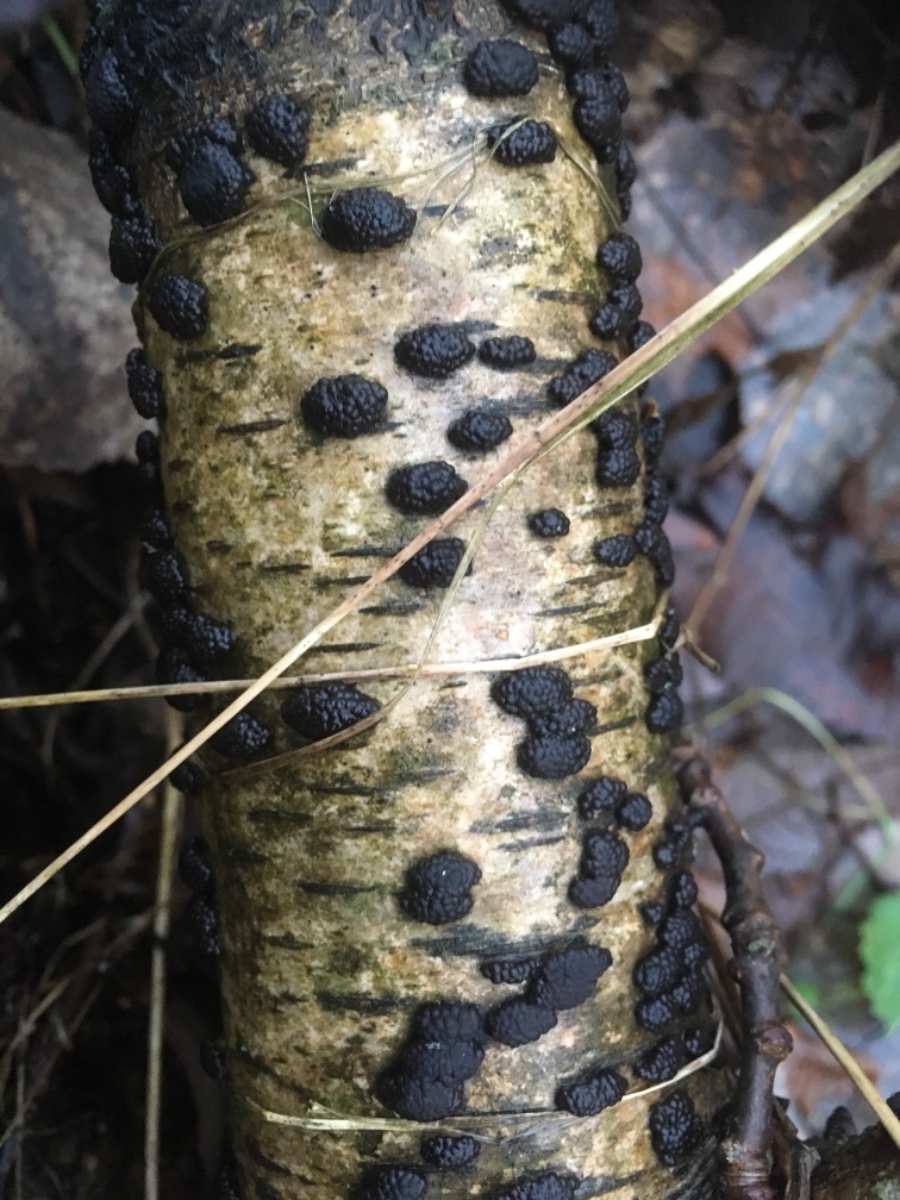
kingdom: Fungi
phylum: Ascomycota
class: Sordariomycetes
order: Xylariales
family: Hypoxylaceae
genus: Jackrogersella
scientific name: Jackrogersella multiformis
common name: foranderlig kulbær
